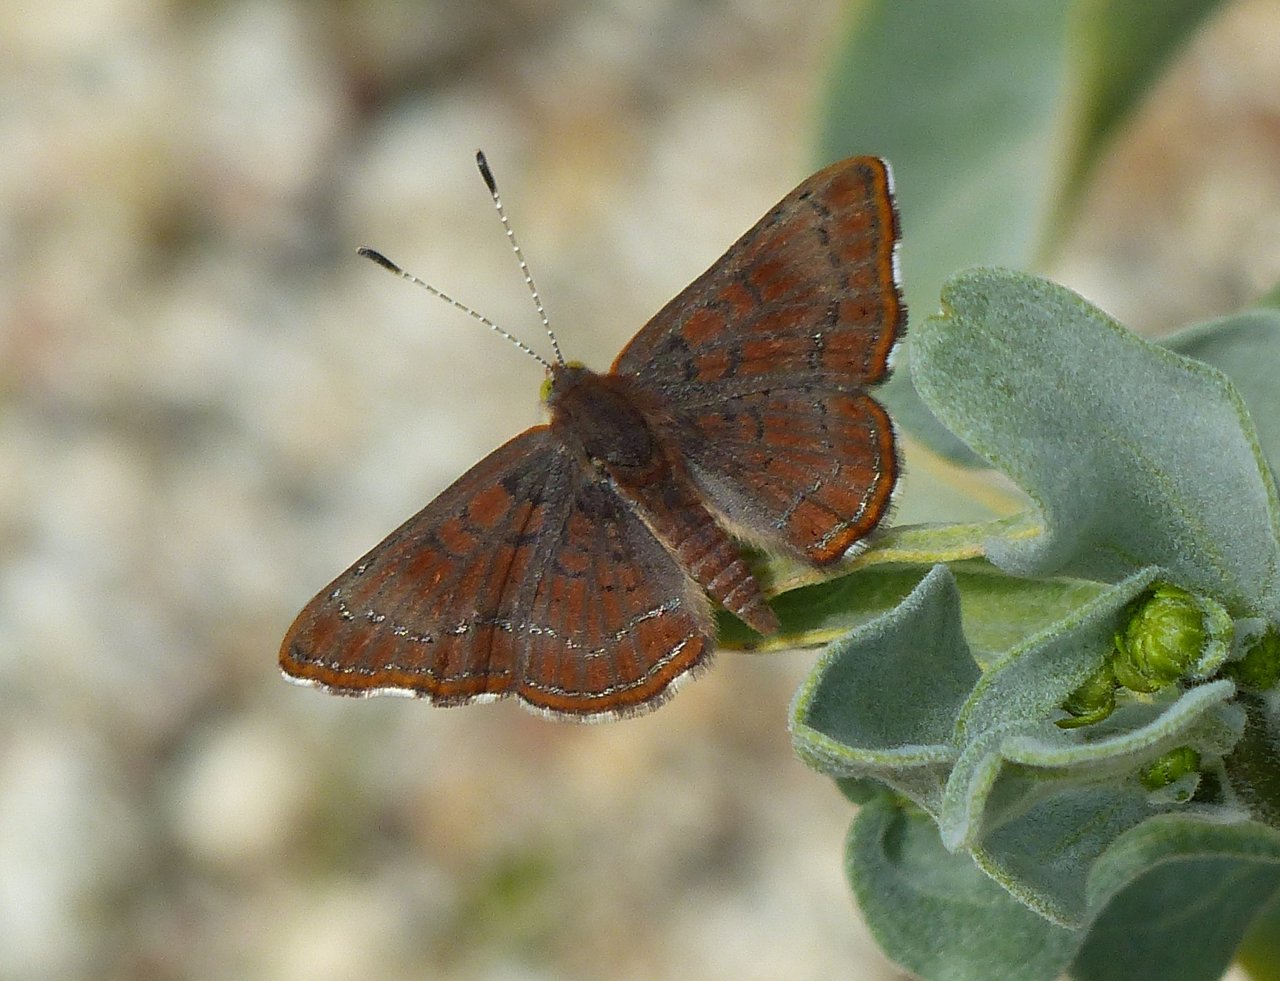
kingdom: Animalia
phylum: Arthropoda
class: Insecta
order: Lepidoptera
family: Lycaenidae
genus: Emesis
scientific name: Emesis wrighti
